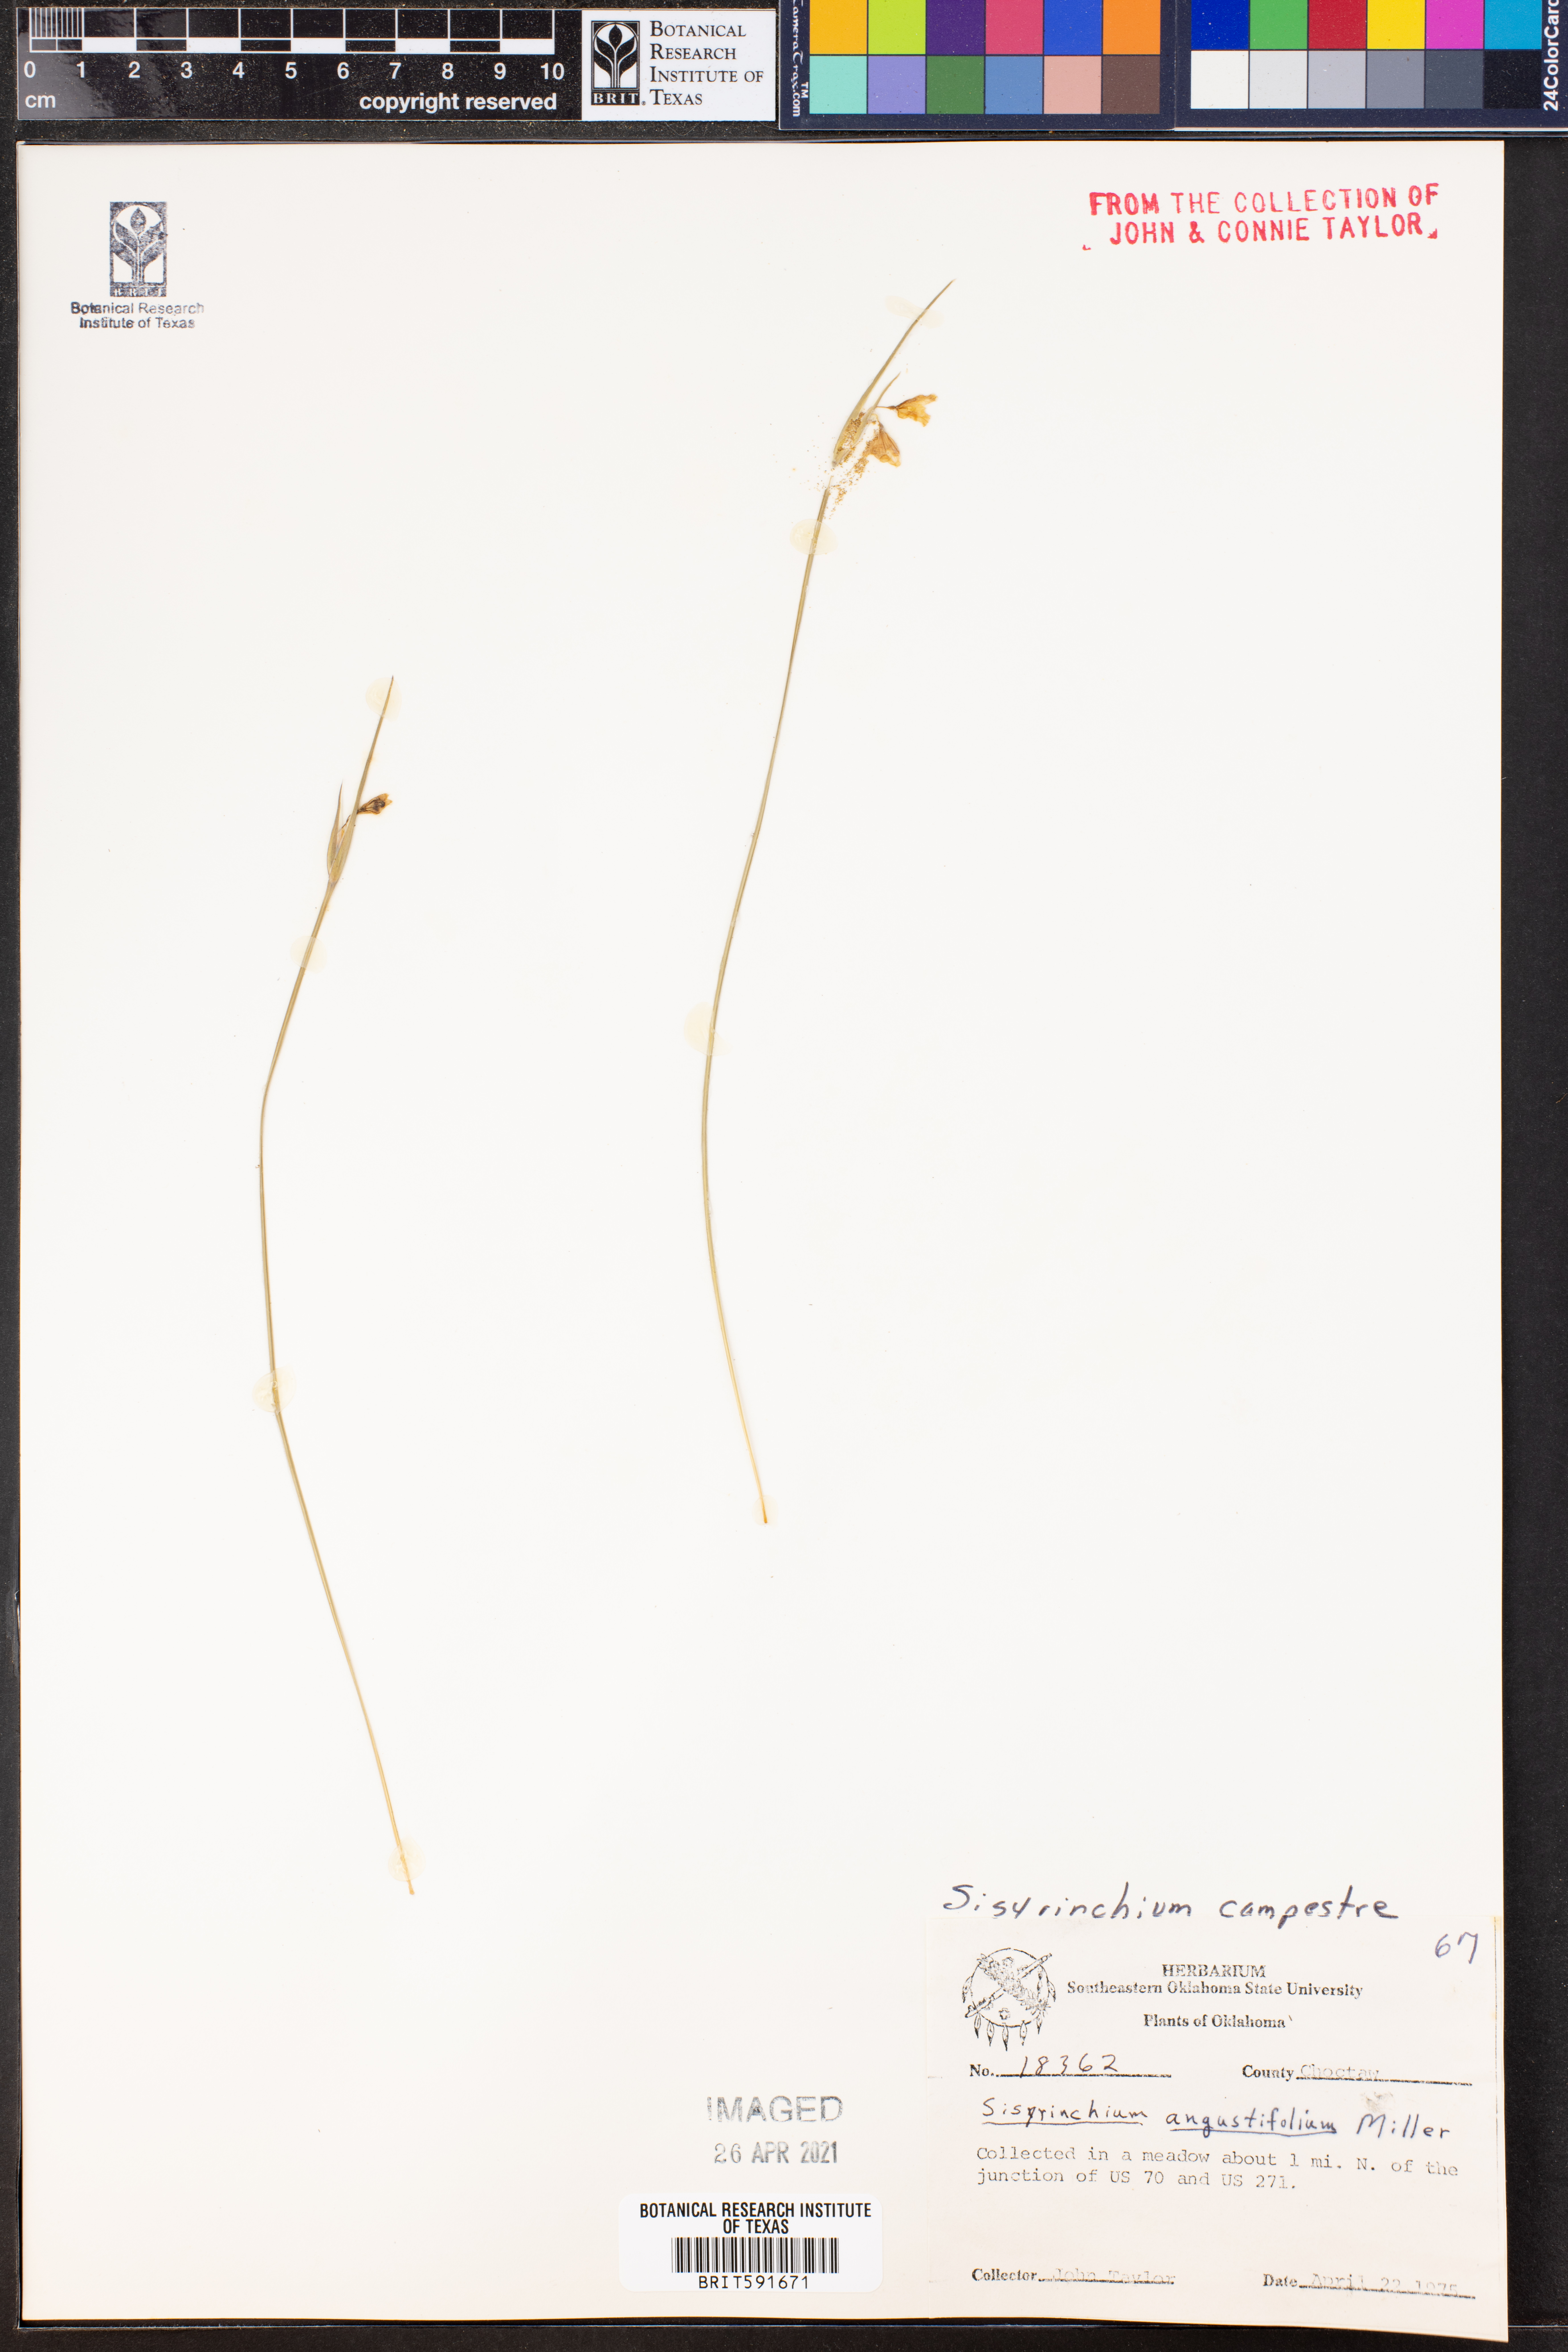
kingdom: Plantae
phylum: Tracheophyta
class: Liliopsida
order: Asparagales
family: Iridaceae
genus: Sisyrinchium
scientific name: Sisyrinchium campestre
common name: Prairie blue-eyed-grass
